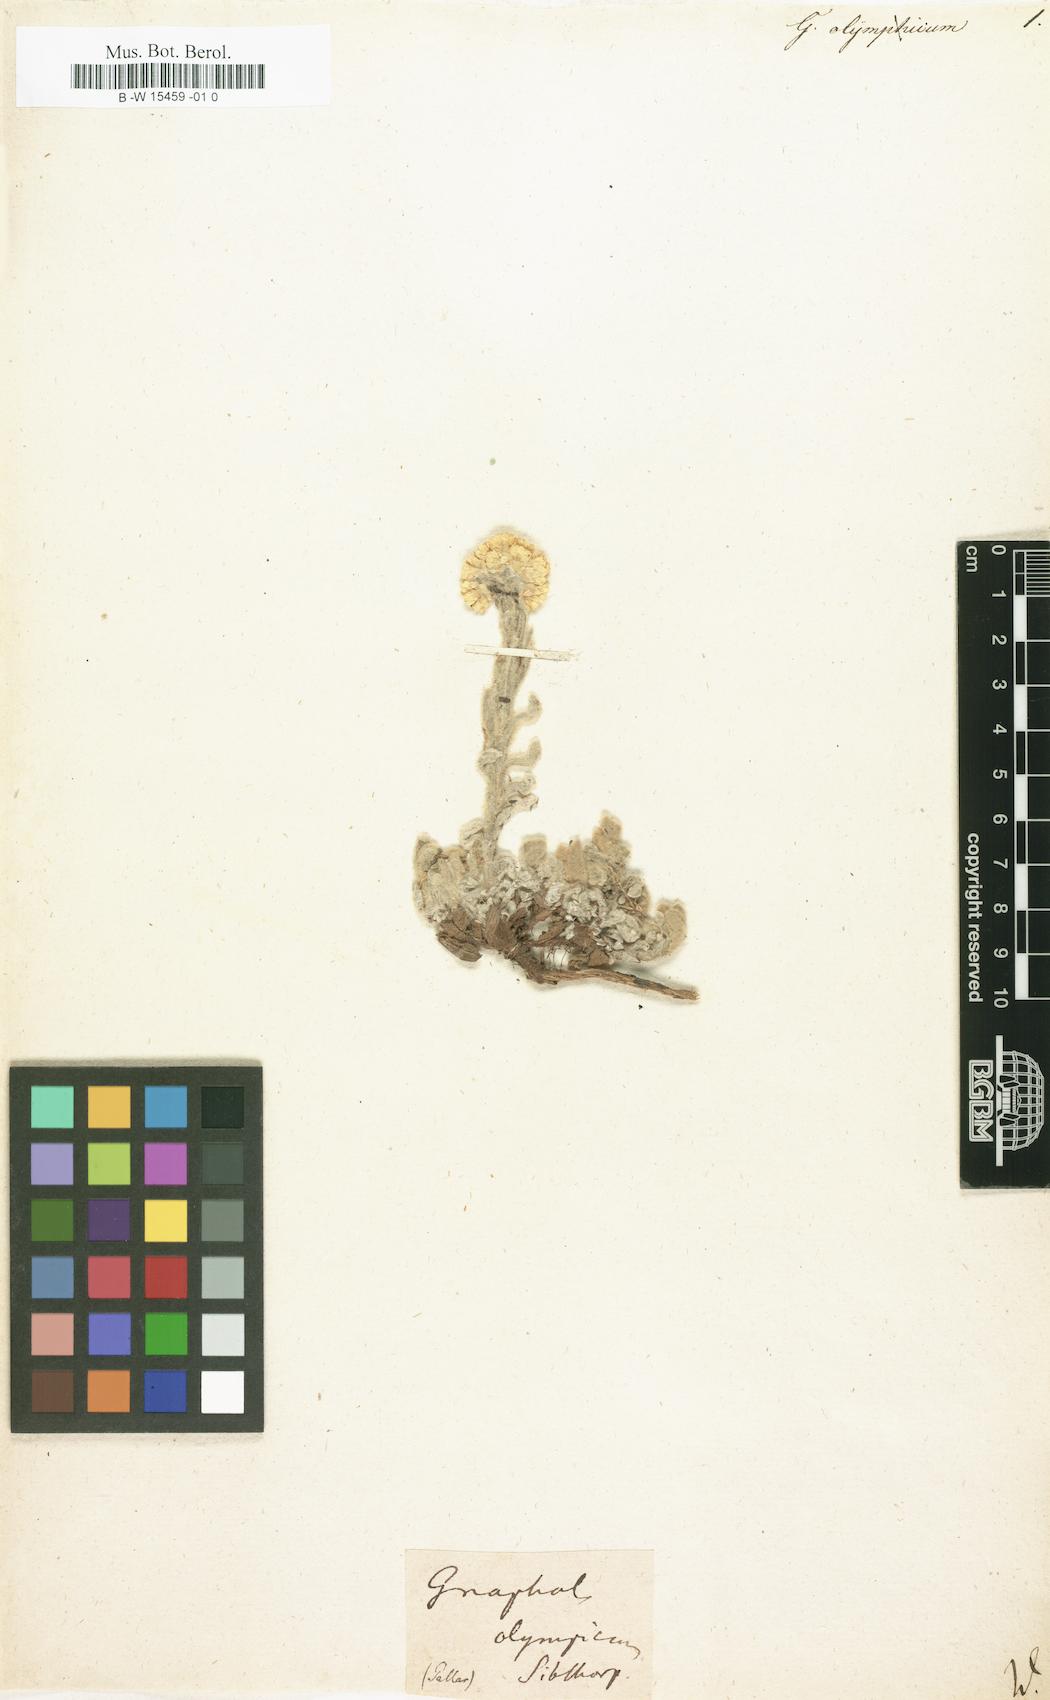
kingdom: Plantae
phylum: Tracheophyta
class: Magnoliopsida
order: Asterales
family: Asteraceae
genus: Helichrysum
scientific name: Helichrysum sibthorpii
